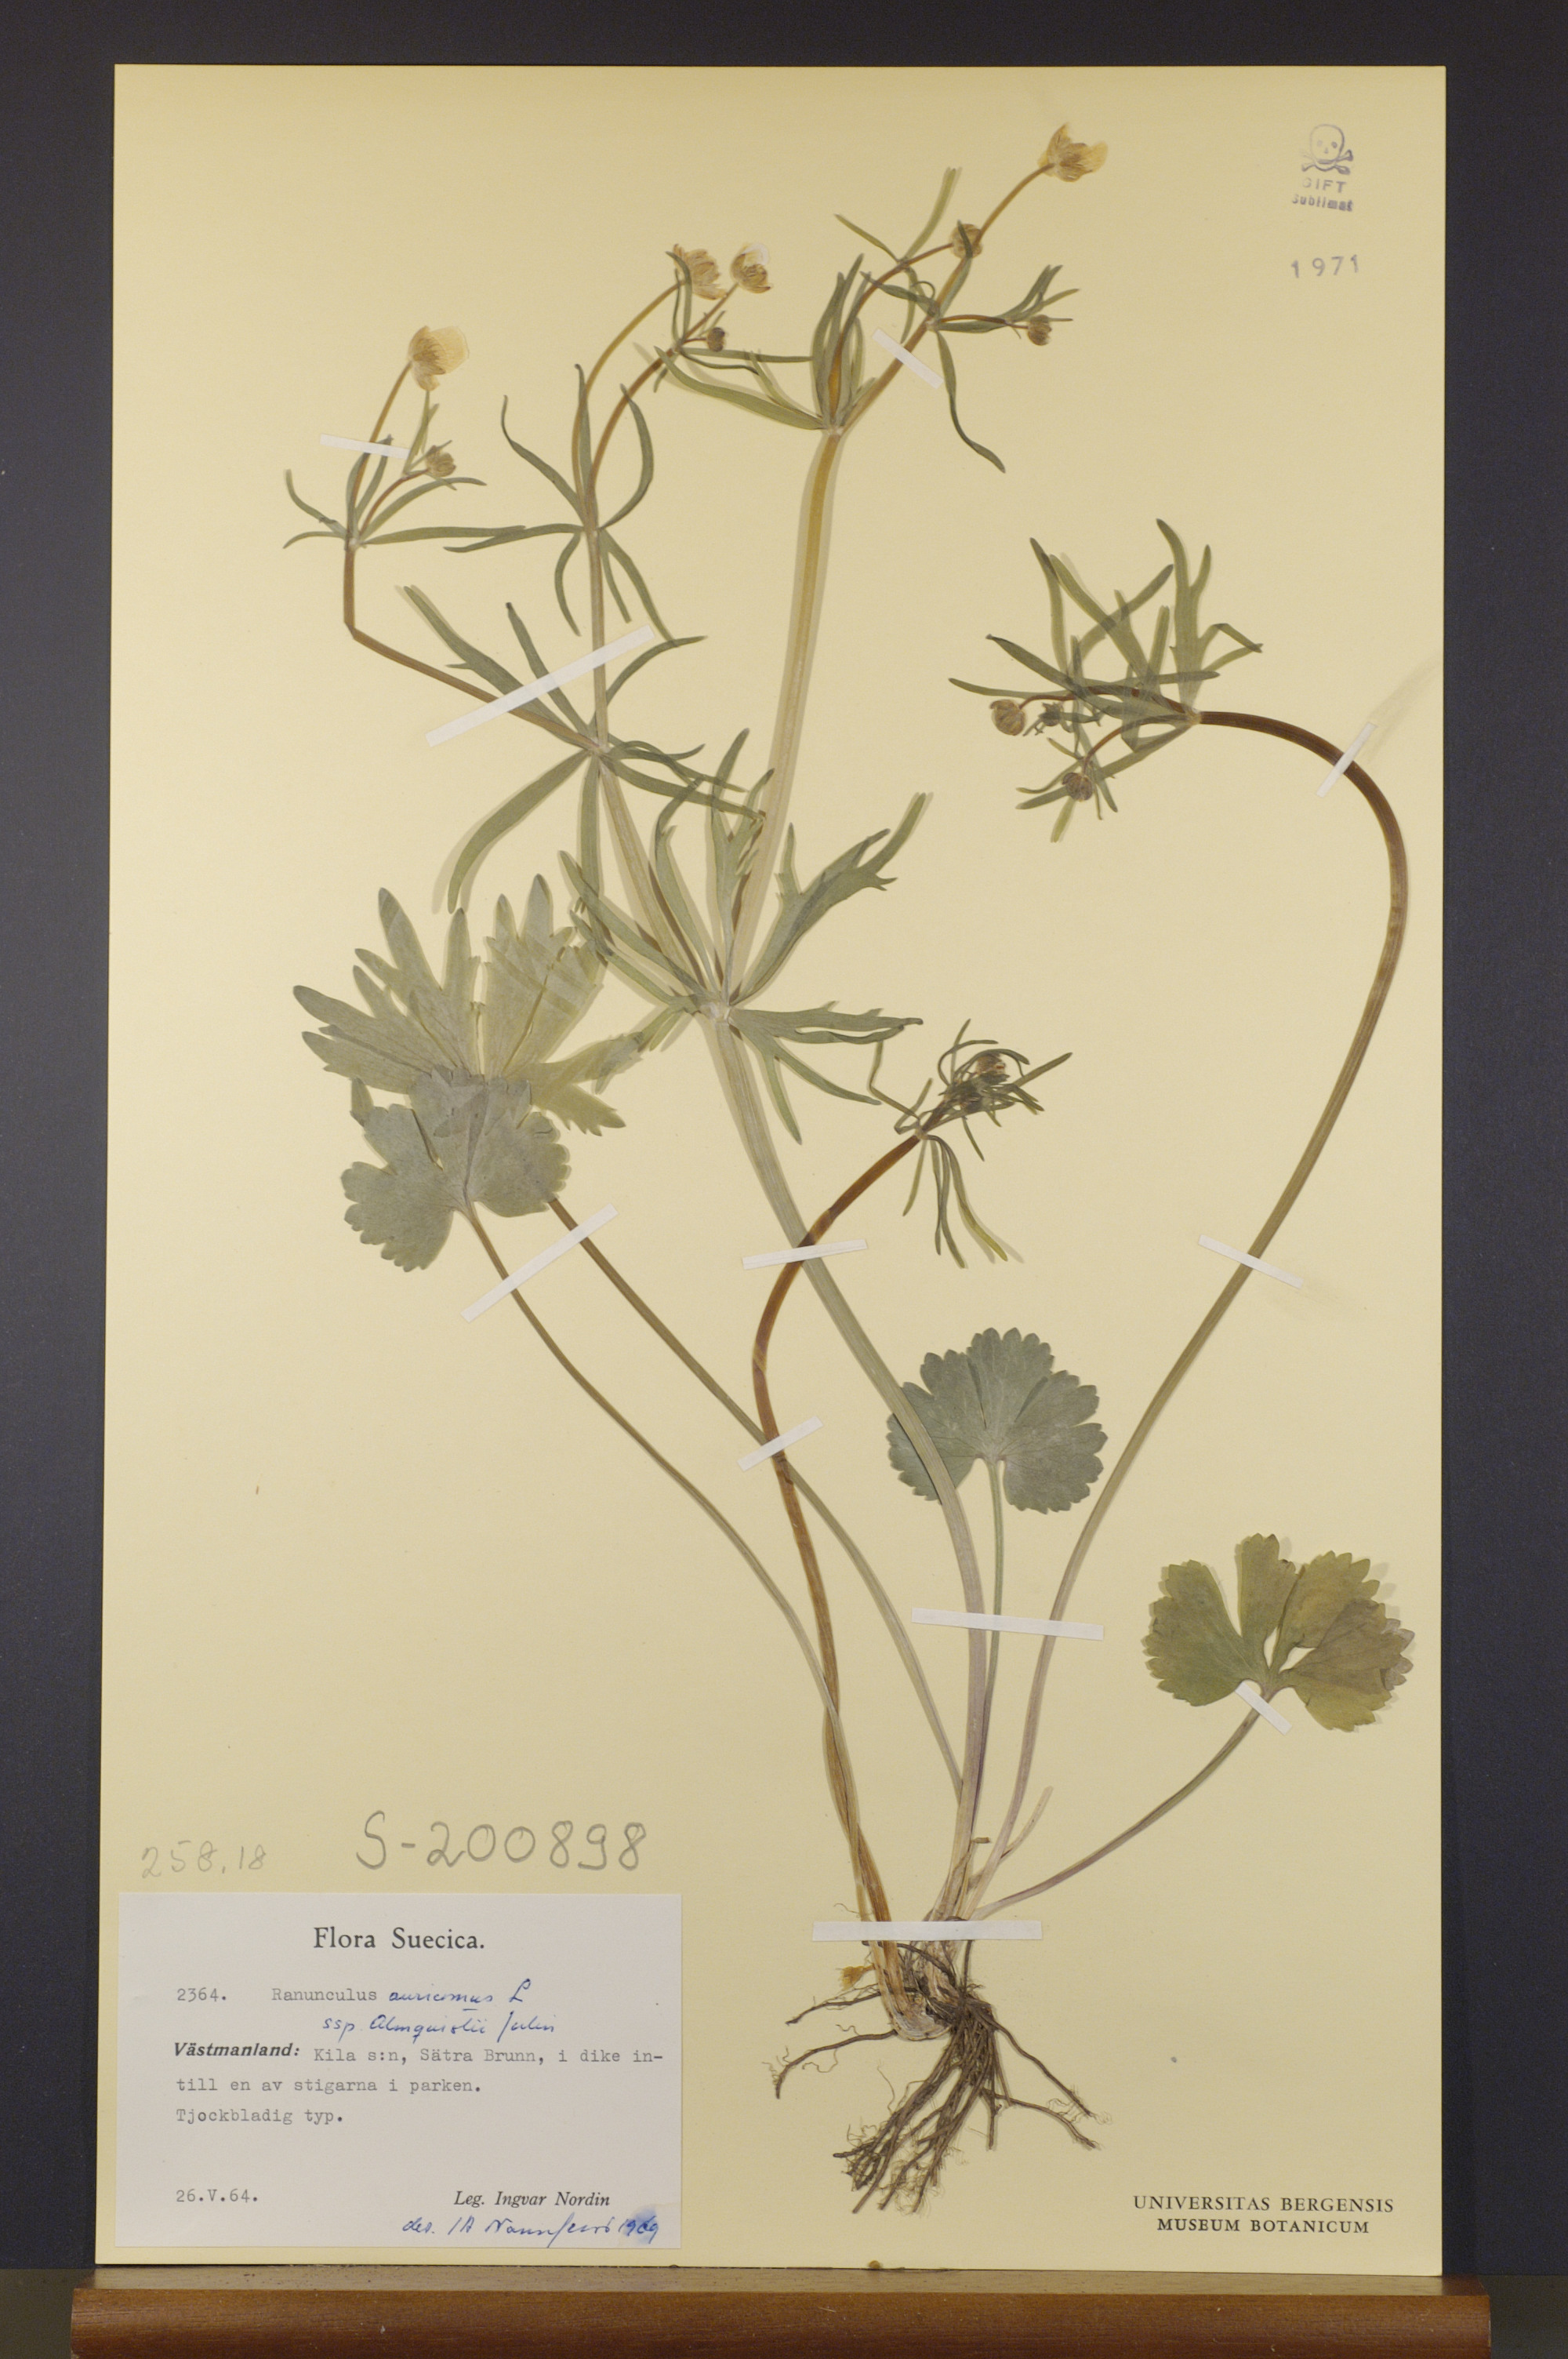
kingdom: Plantae
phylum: Tracheophyta
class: Magnoliopsida
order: Ranunculales
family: Ranunculaceae
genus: Ranunculus
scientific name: Ranunculus almquistii
